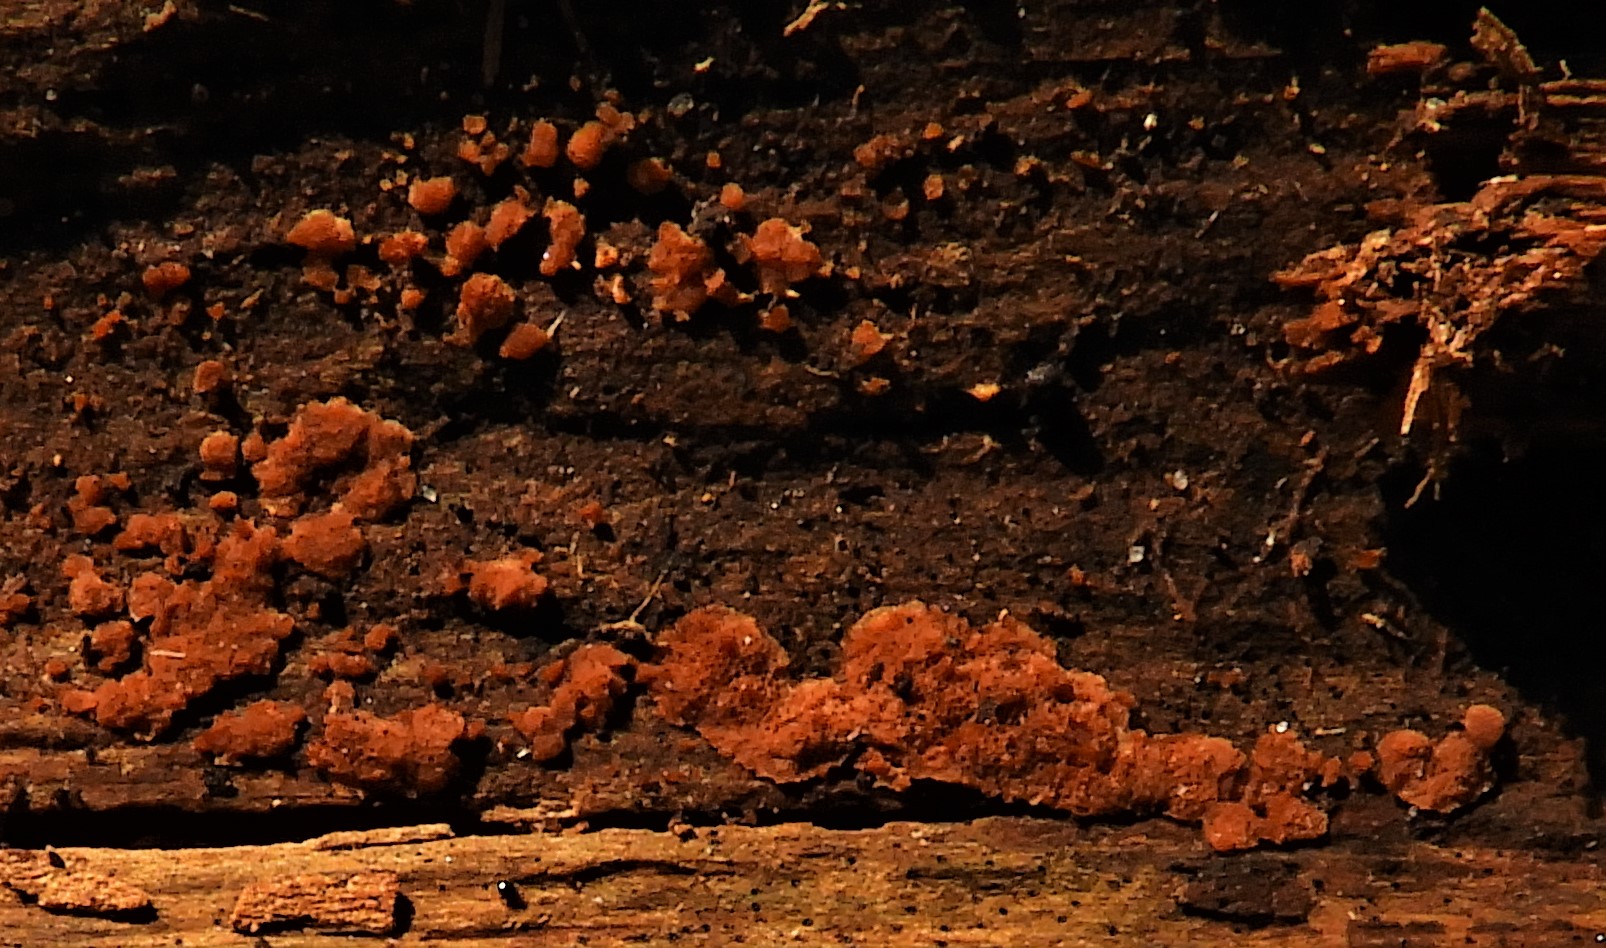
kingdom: Fungi
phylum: Basidiomycota
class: Agaricomycetes
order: Polyporales
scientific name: Polyporales
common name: poresvampordenen
